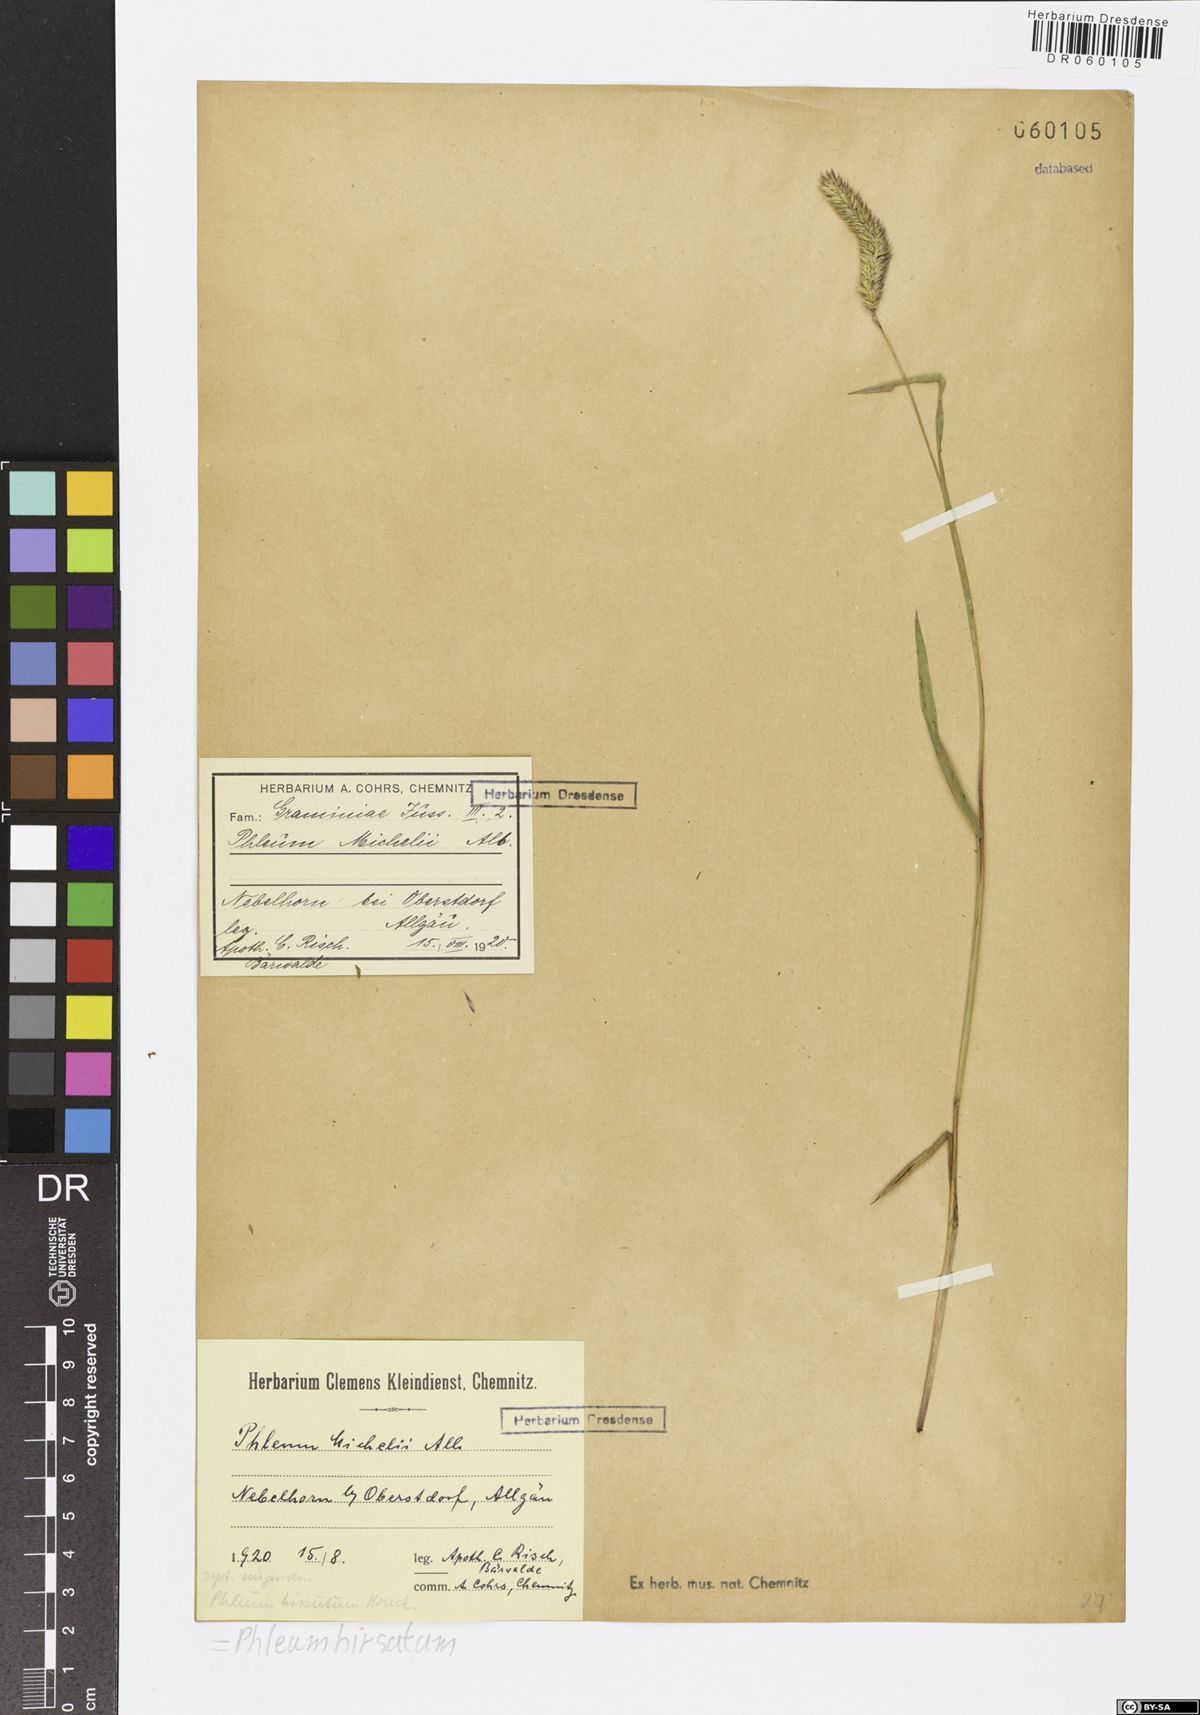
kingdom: Plantae
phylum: Tracheophyta
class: Liliopsida
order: Poales
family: Poaceae
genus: Phleum
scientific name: Phleum hirsutum
